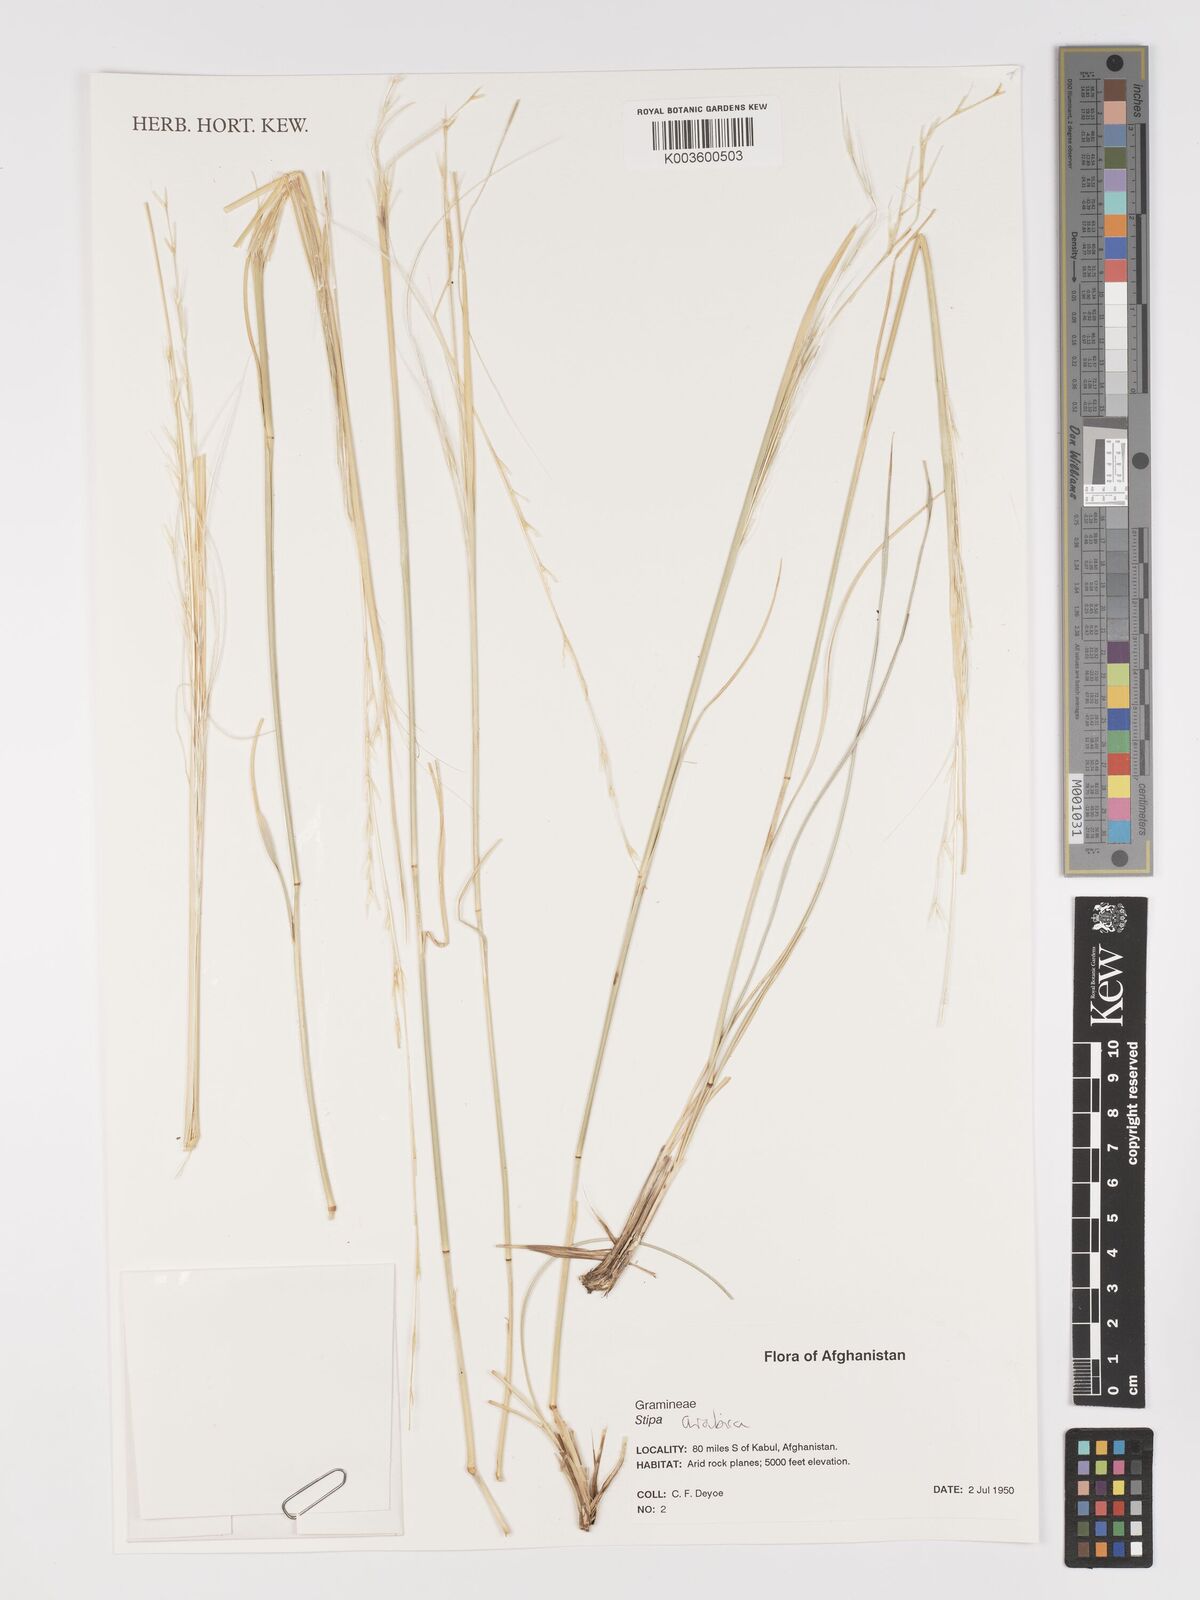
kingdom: Plantae
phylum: Tracheophyta
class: Liliopsida
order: Poales
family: Poaceae
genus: Stipa
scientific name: Stipa arabica
